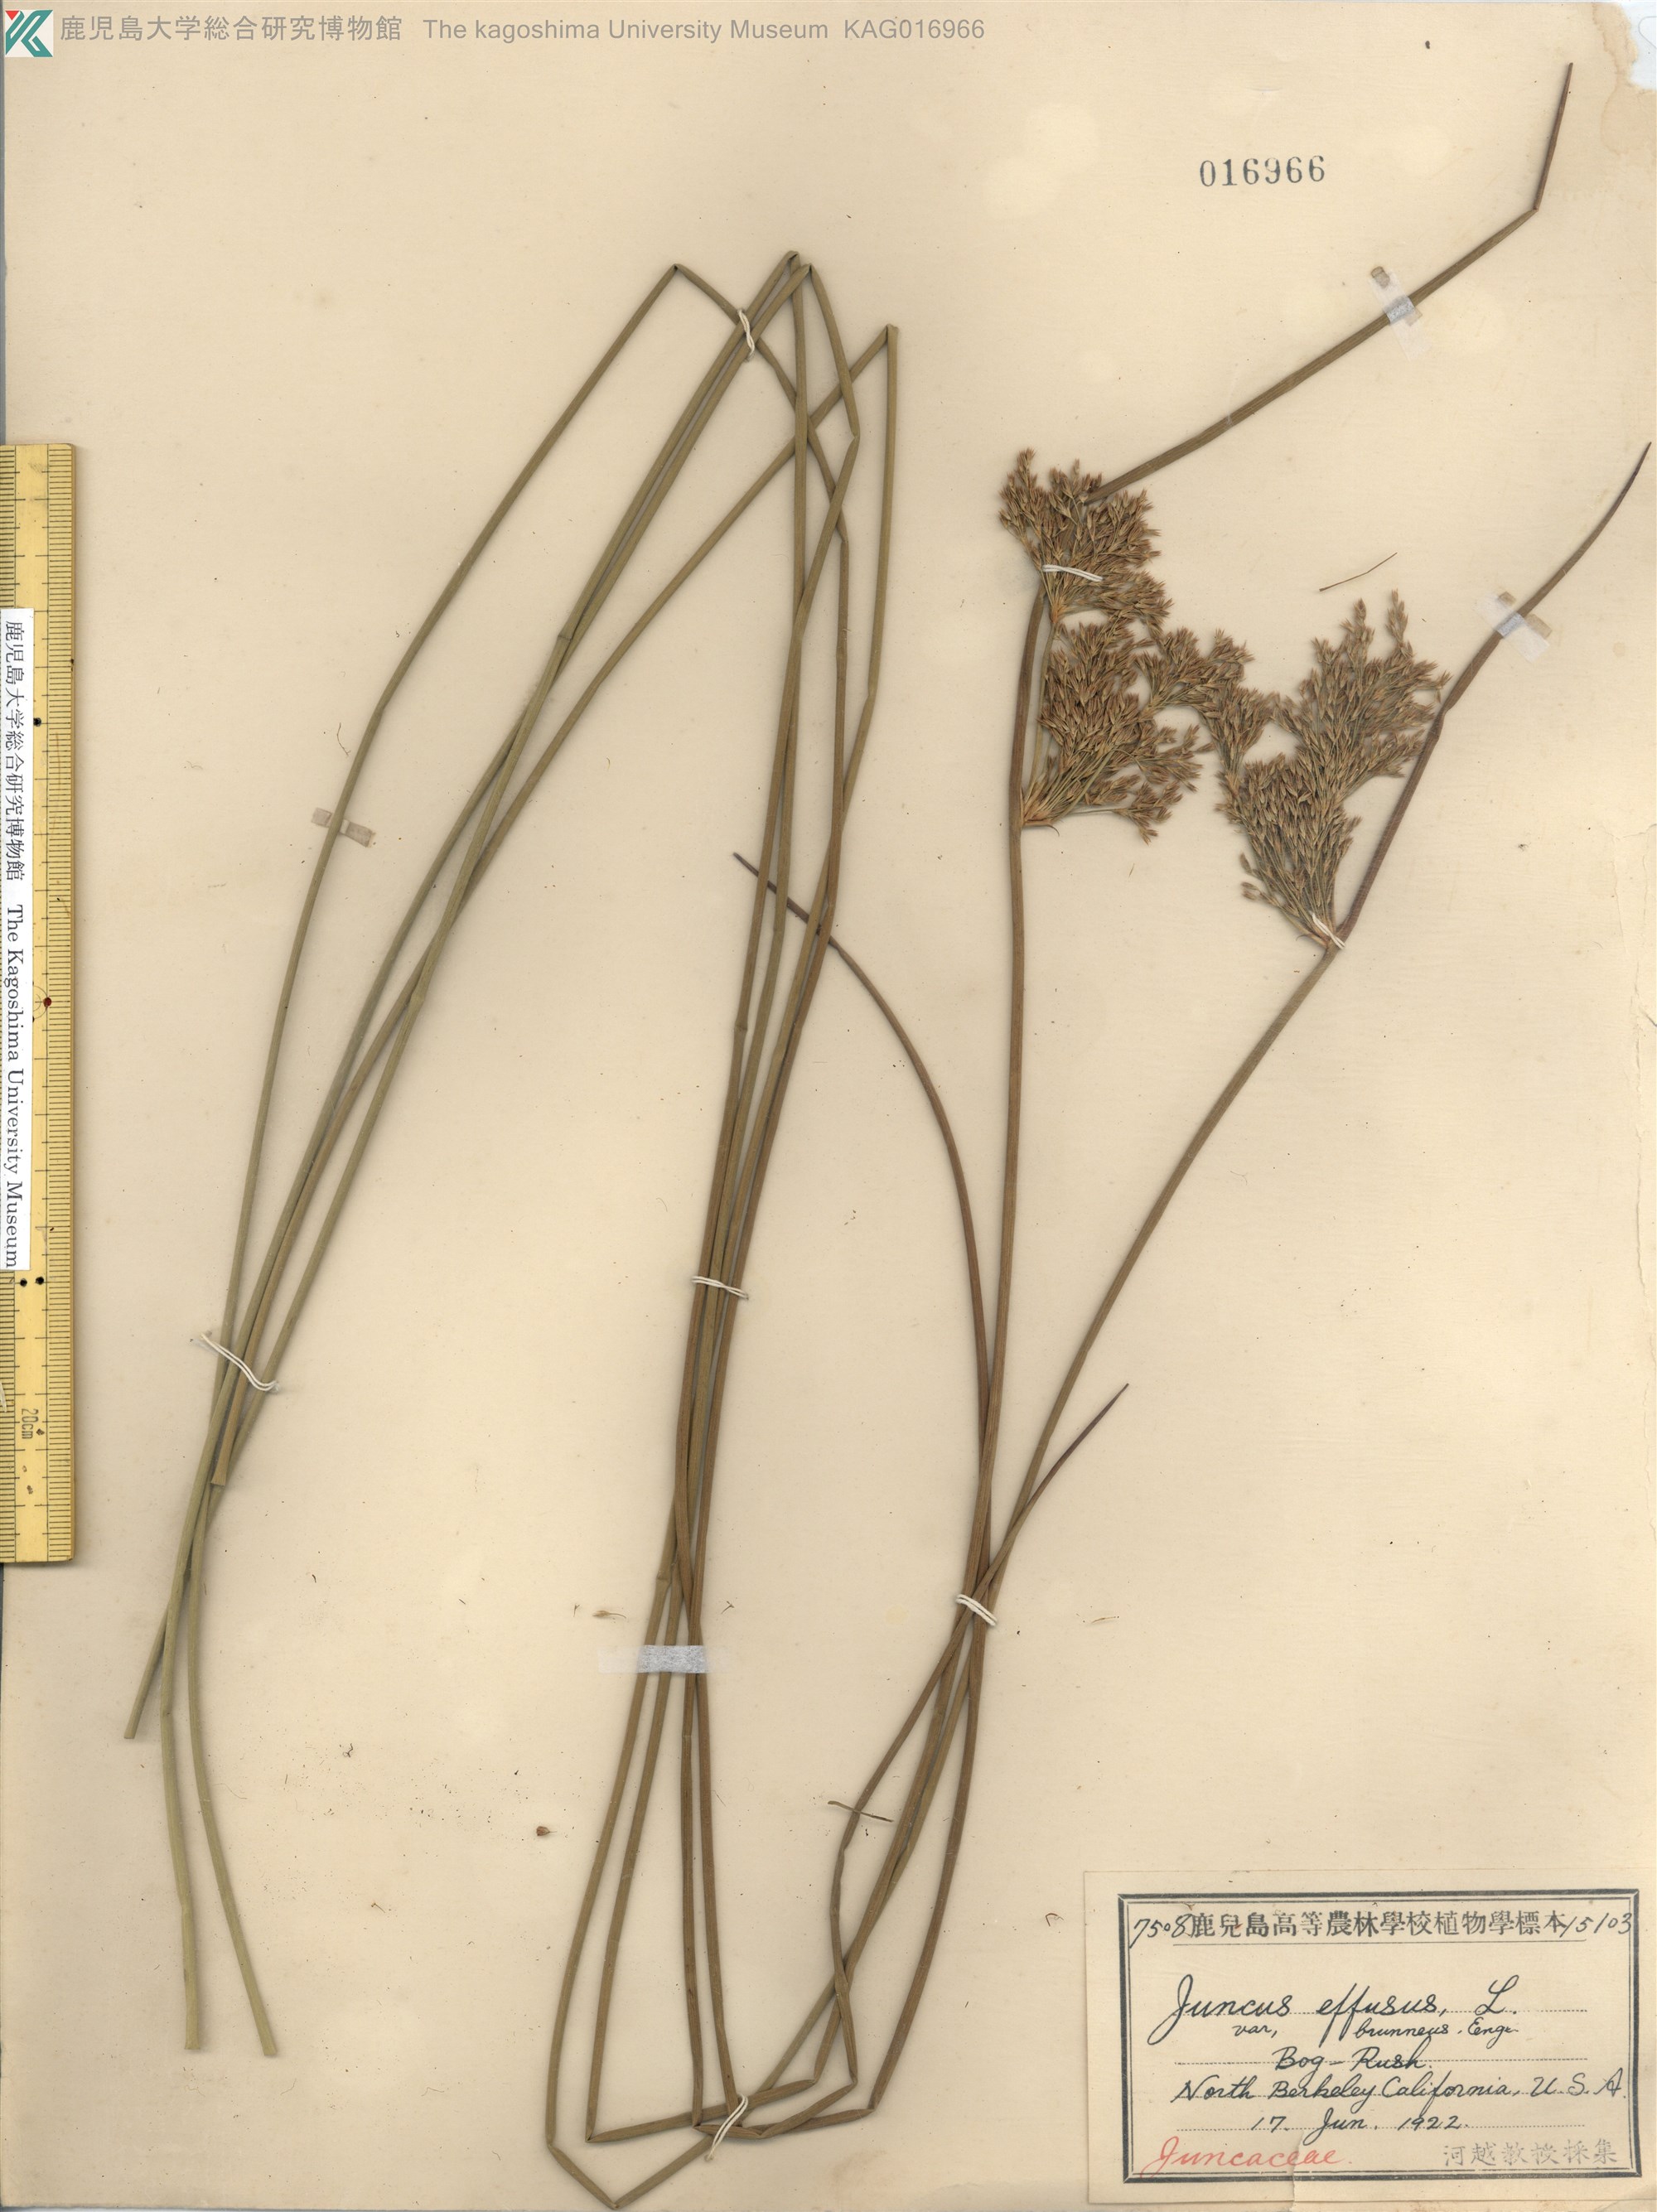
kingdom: Plantae
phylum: Tracheophyta
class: Liliopsida
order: Poales
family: Juncaceae
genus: Juncus
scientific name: Juncus decipiens
